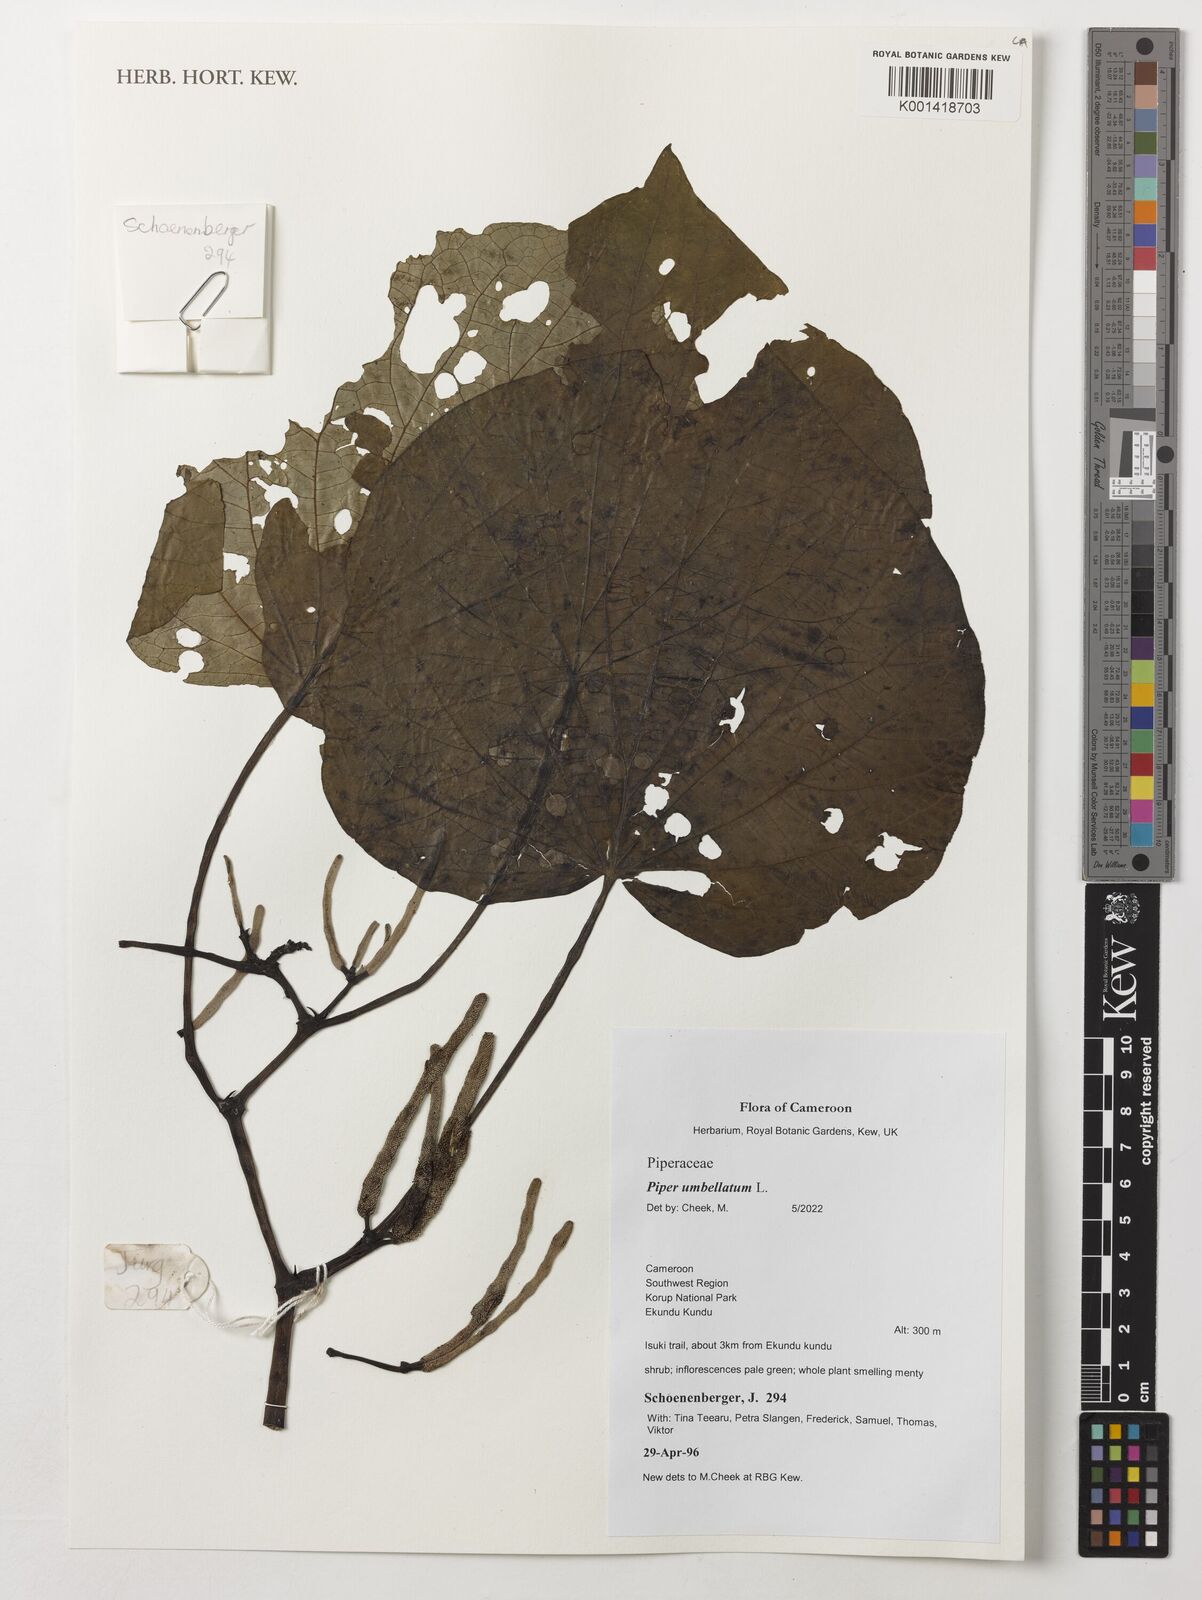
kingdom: Plantae
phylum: Tracheophyta
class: Magnoliopsida
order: Piperales
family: Piperaceae
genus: Piper
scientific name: Piper umbellatum
